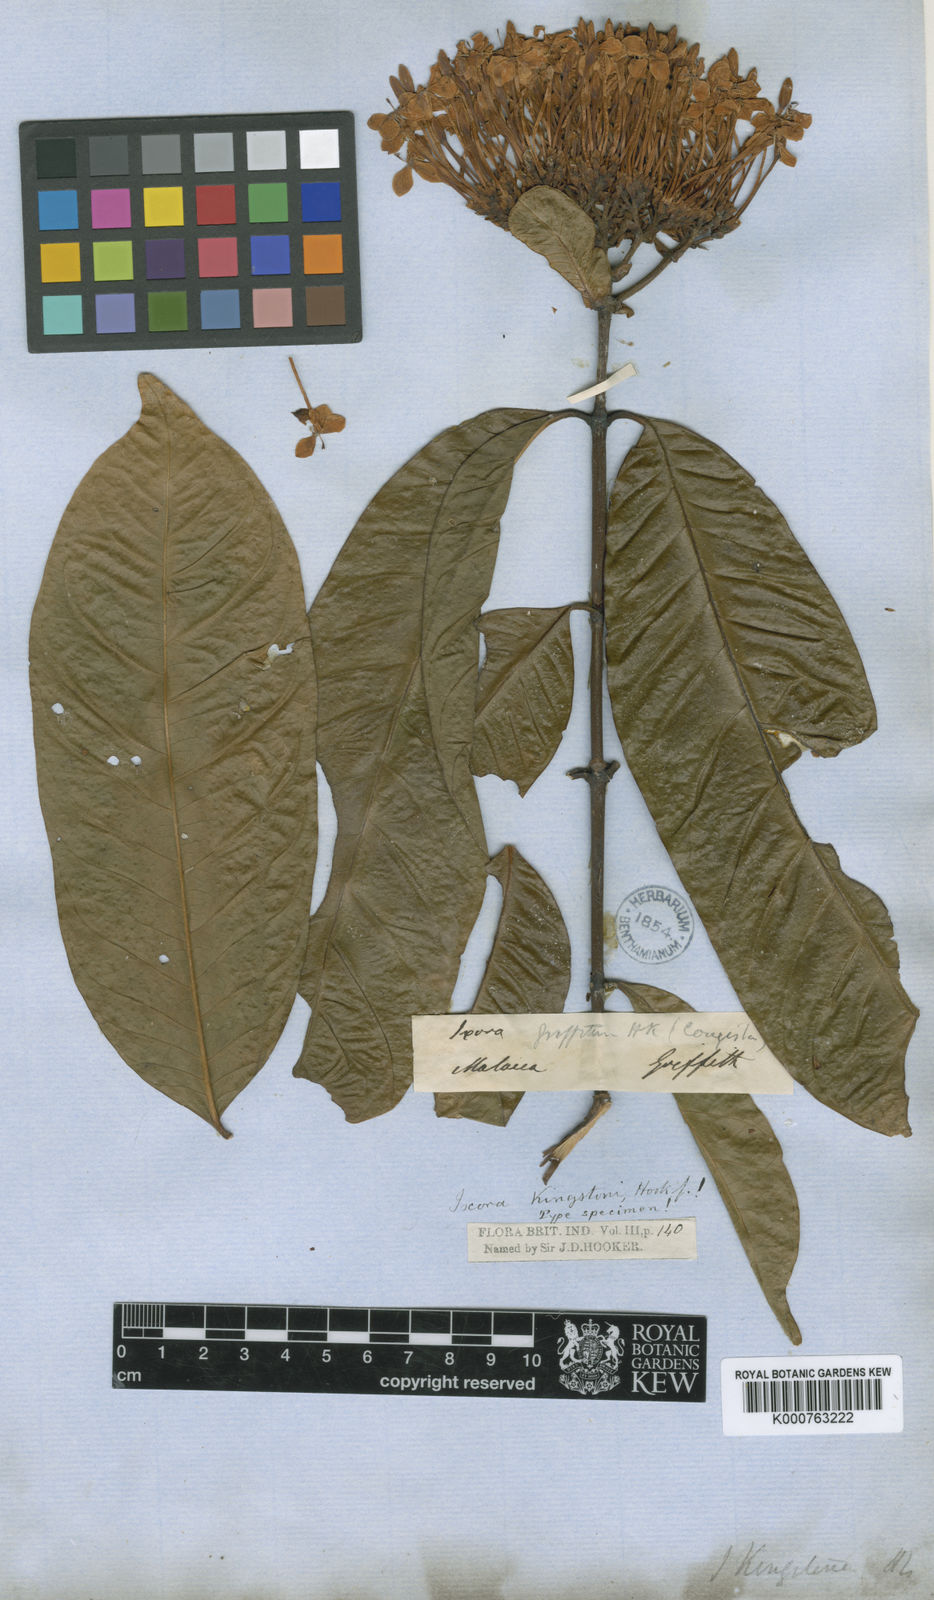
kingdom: Plantae
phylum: Tracheophyta
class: Magnoliopsida
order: Gentianales
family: Rubiaceae
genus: Ixora
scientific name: Ixora kingstoni
